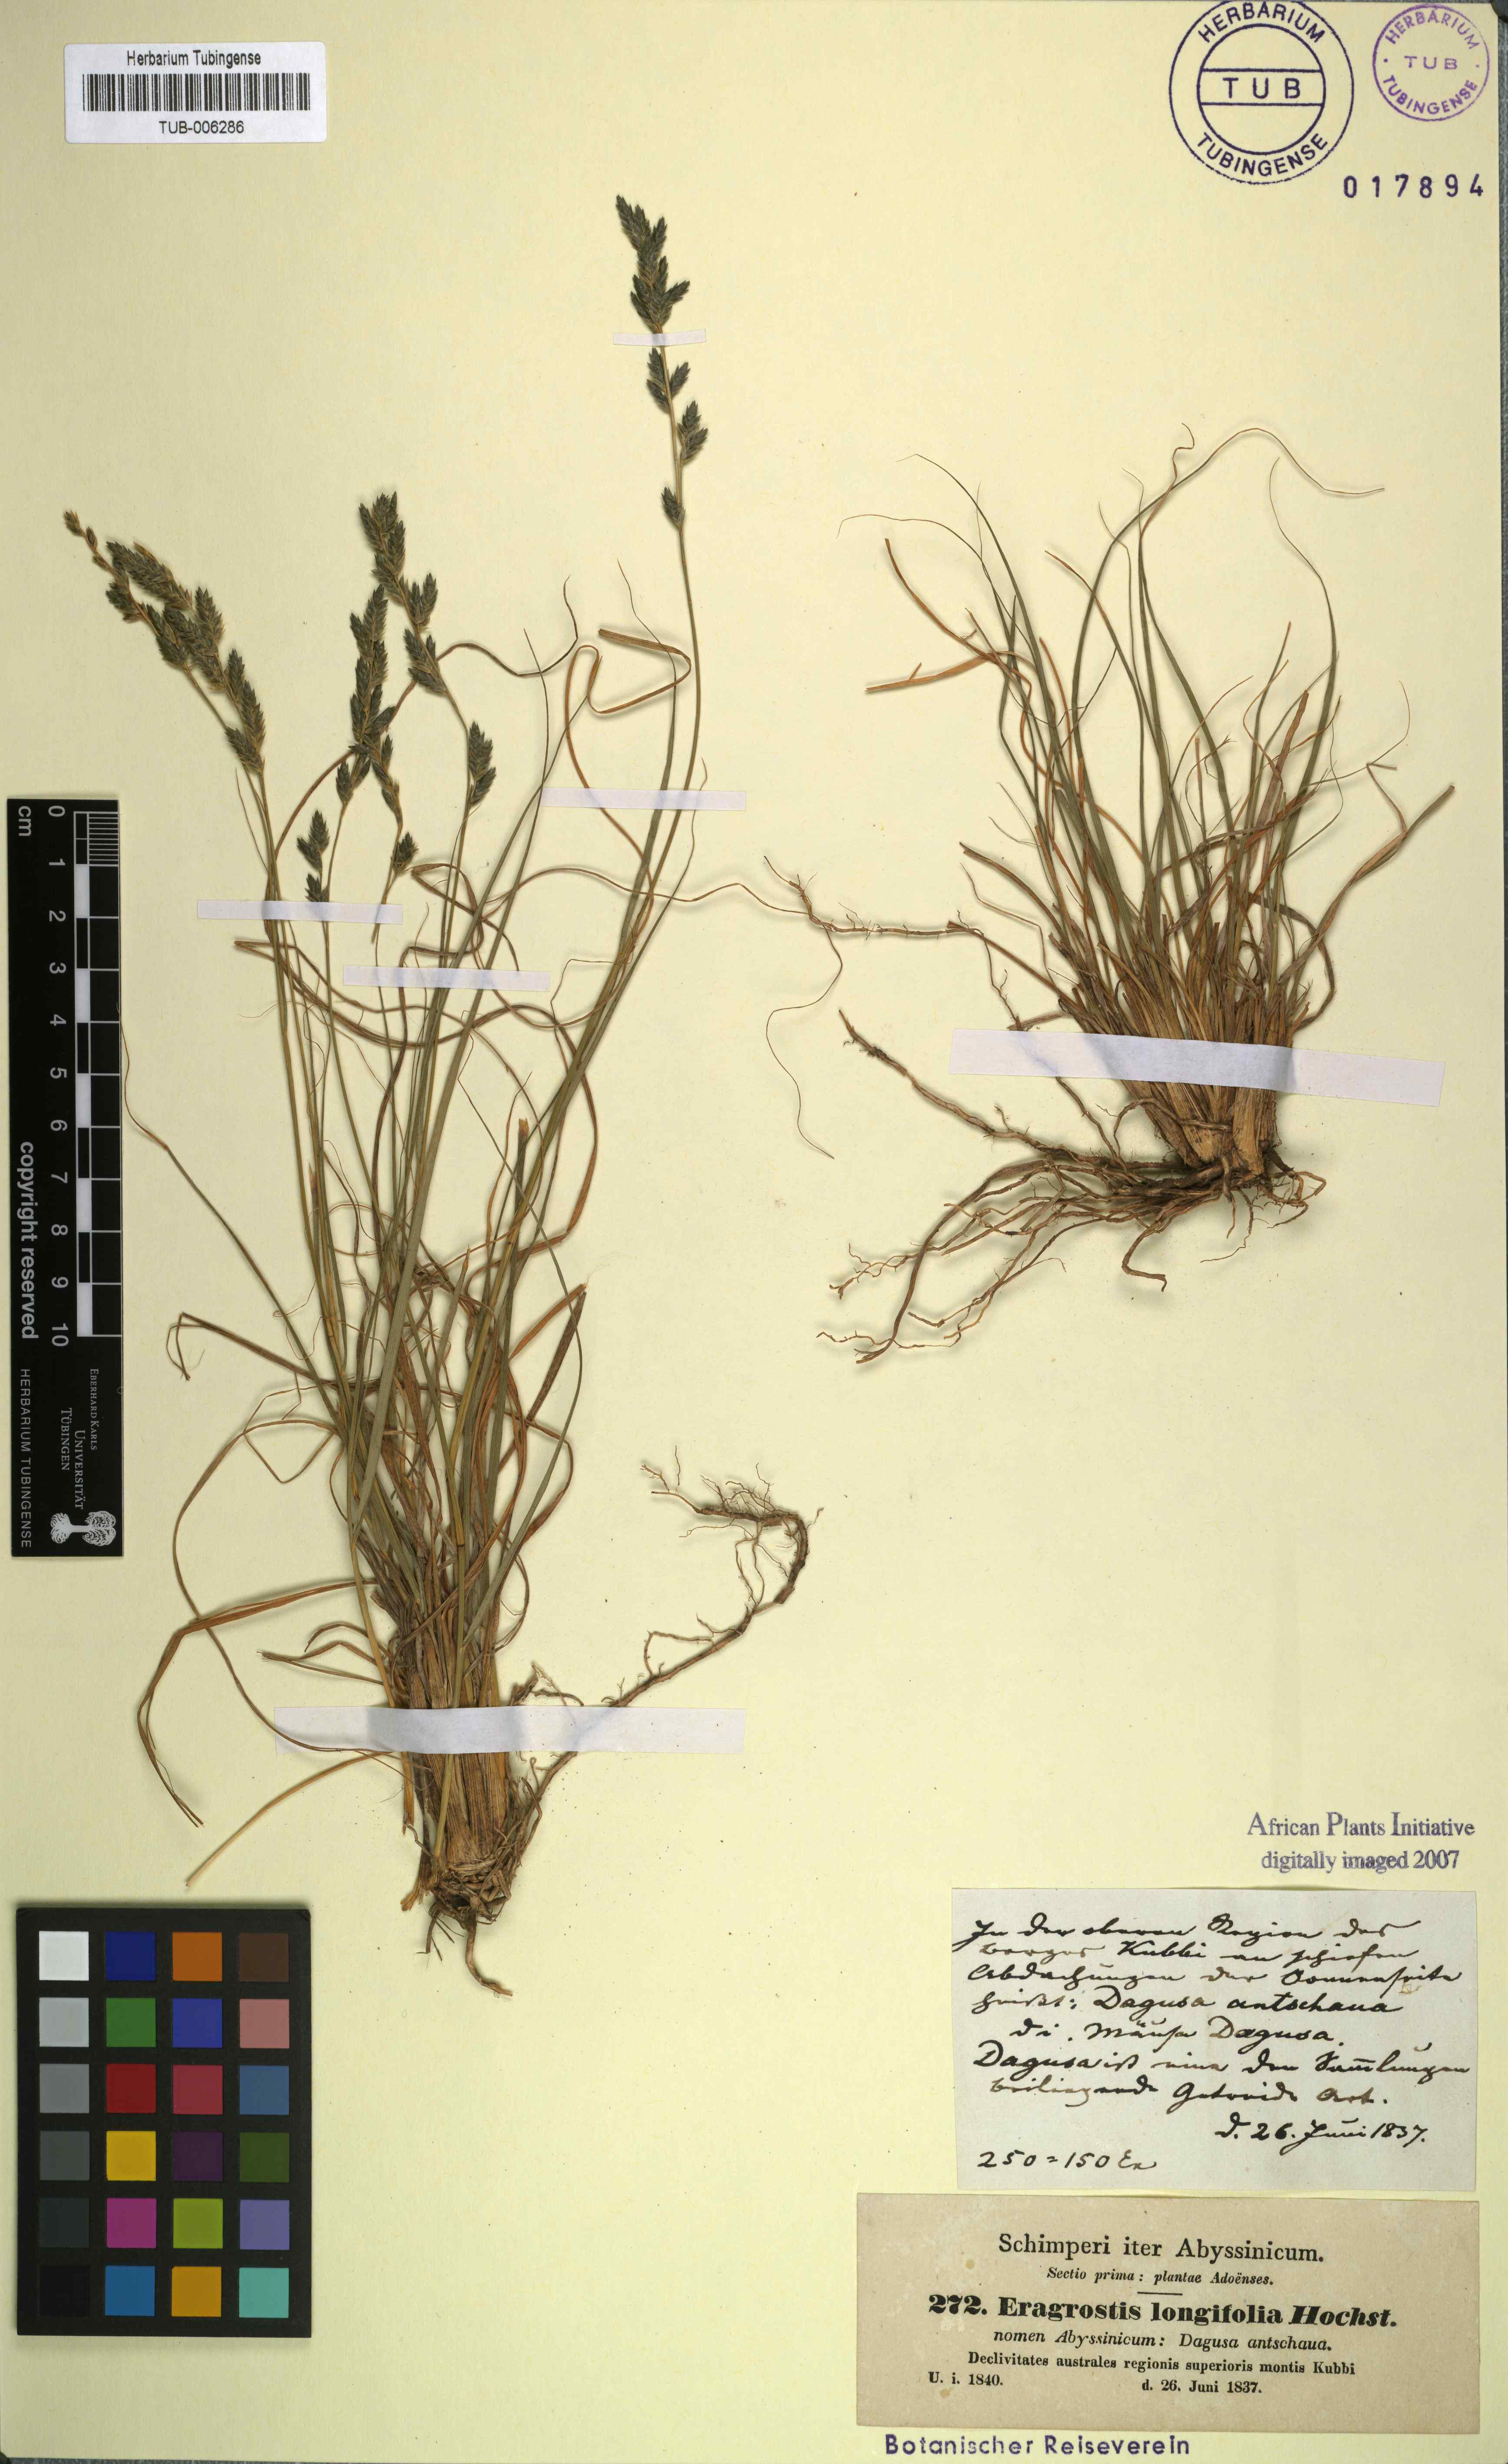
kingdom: Plantae
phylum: Tracheophyta
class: Liliopsida
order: Poales
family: Poaceae
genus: Eragrostis
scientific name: Eragrostis longifolia
